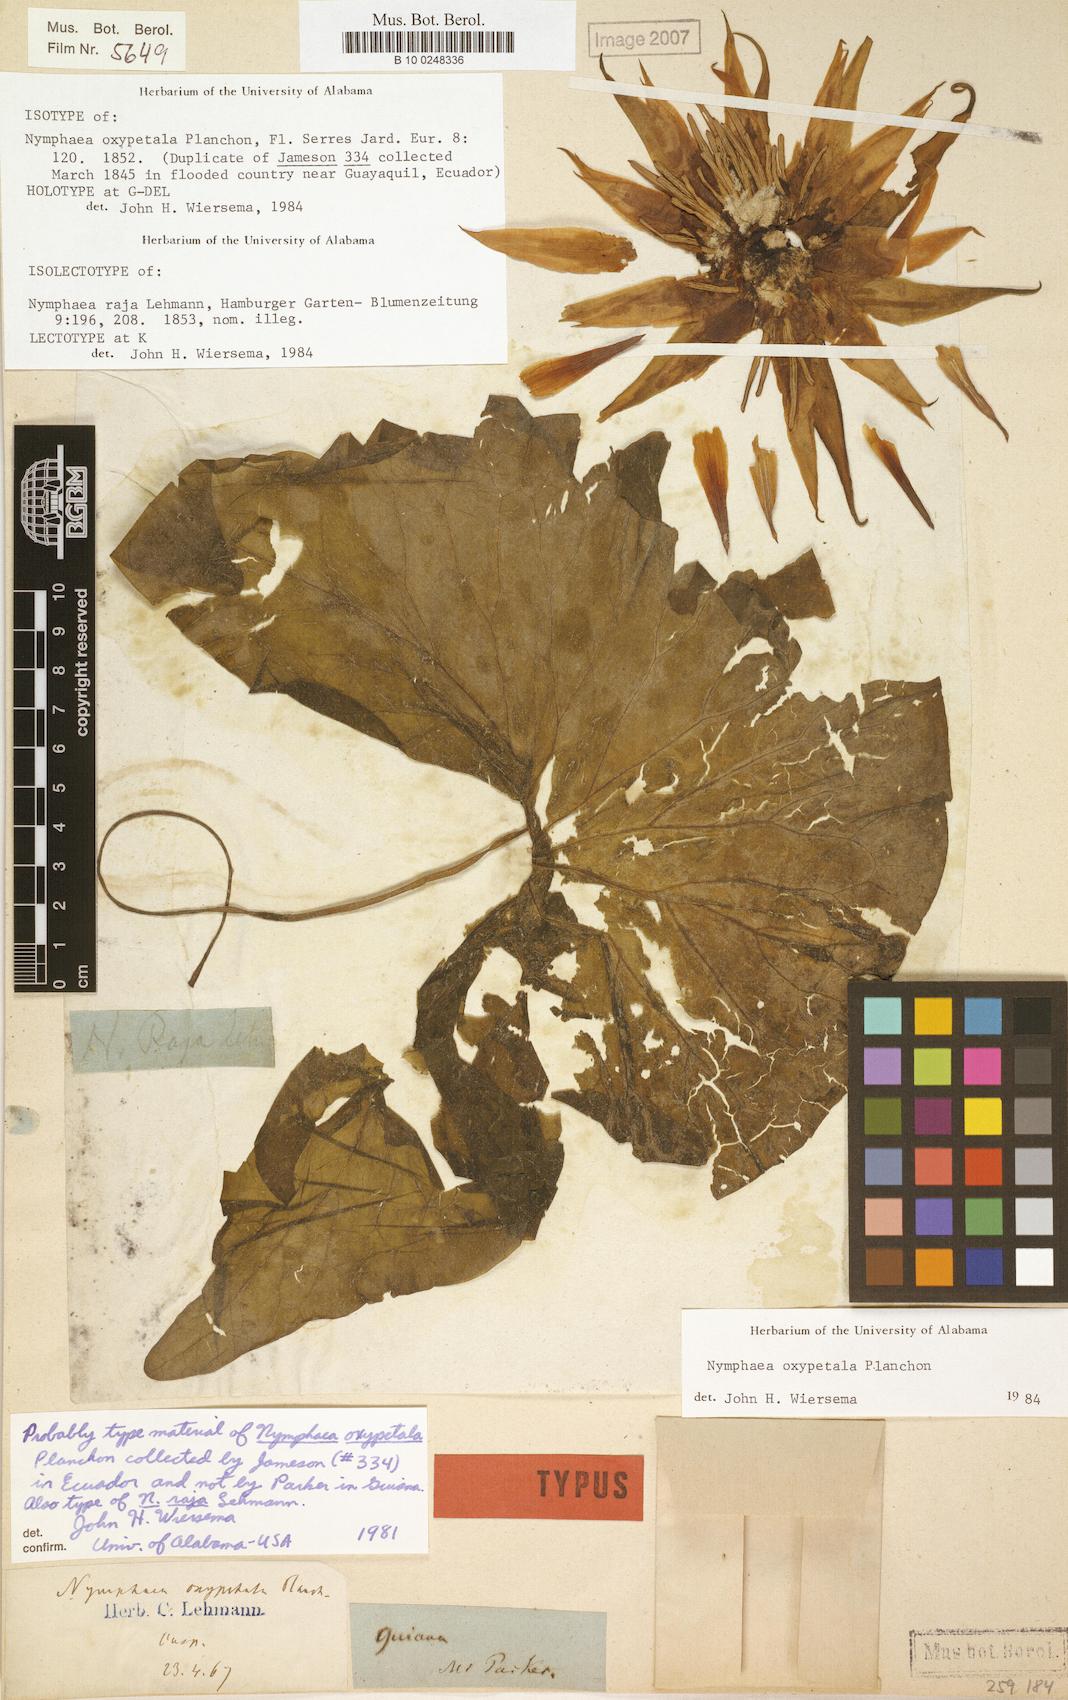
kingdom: Plantae
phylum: Tracheophyta
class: Magnoliopsida
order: Nymphaeales
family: Nymphaeaceae
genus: Nymphaea
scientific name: Nymphaea oxypetala
